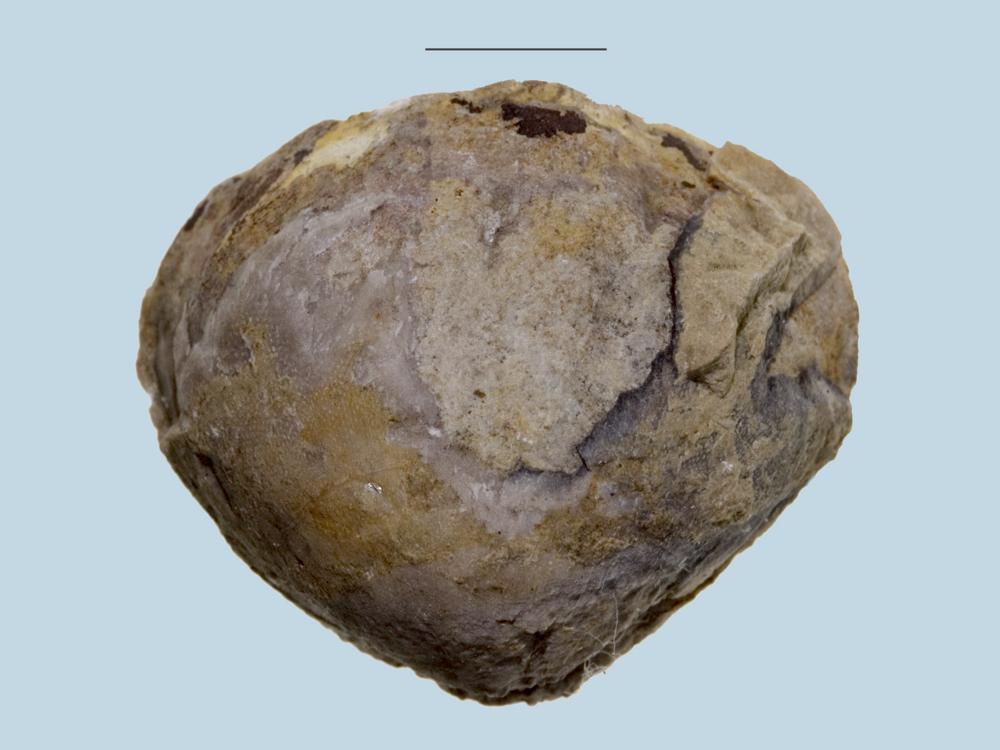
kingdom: Animalia
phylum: Brachiopoda
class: Rhynchonellata
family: Porambonitidae
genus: Porambonites
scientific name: Porambonites
